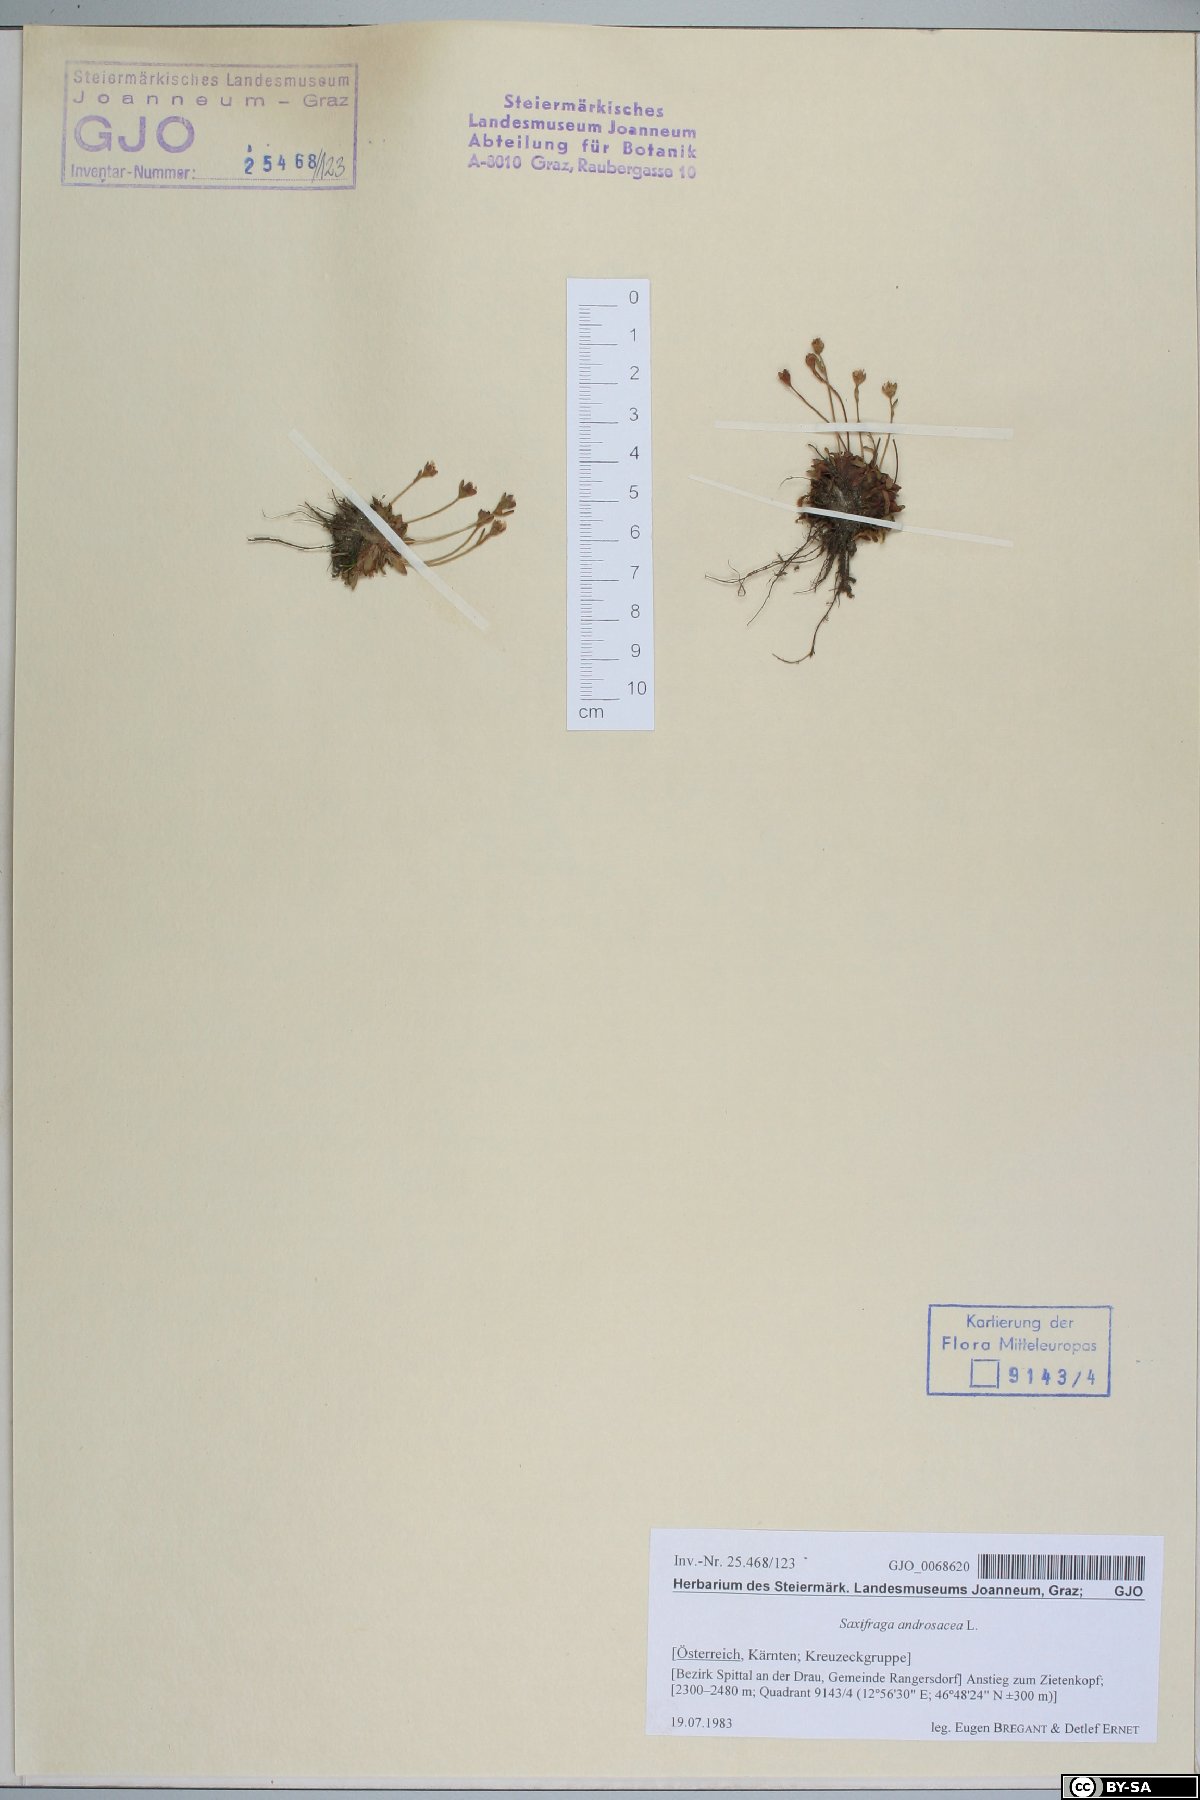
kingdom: Plantae
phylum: Tracheophyta
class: Magnoliopsida
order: Saxifragales
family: Saxifragaceae
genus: Saxifraga
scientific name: Saxifraga androsacea
